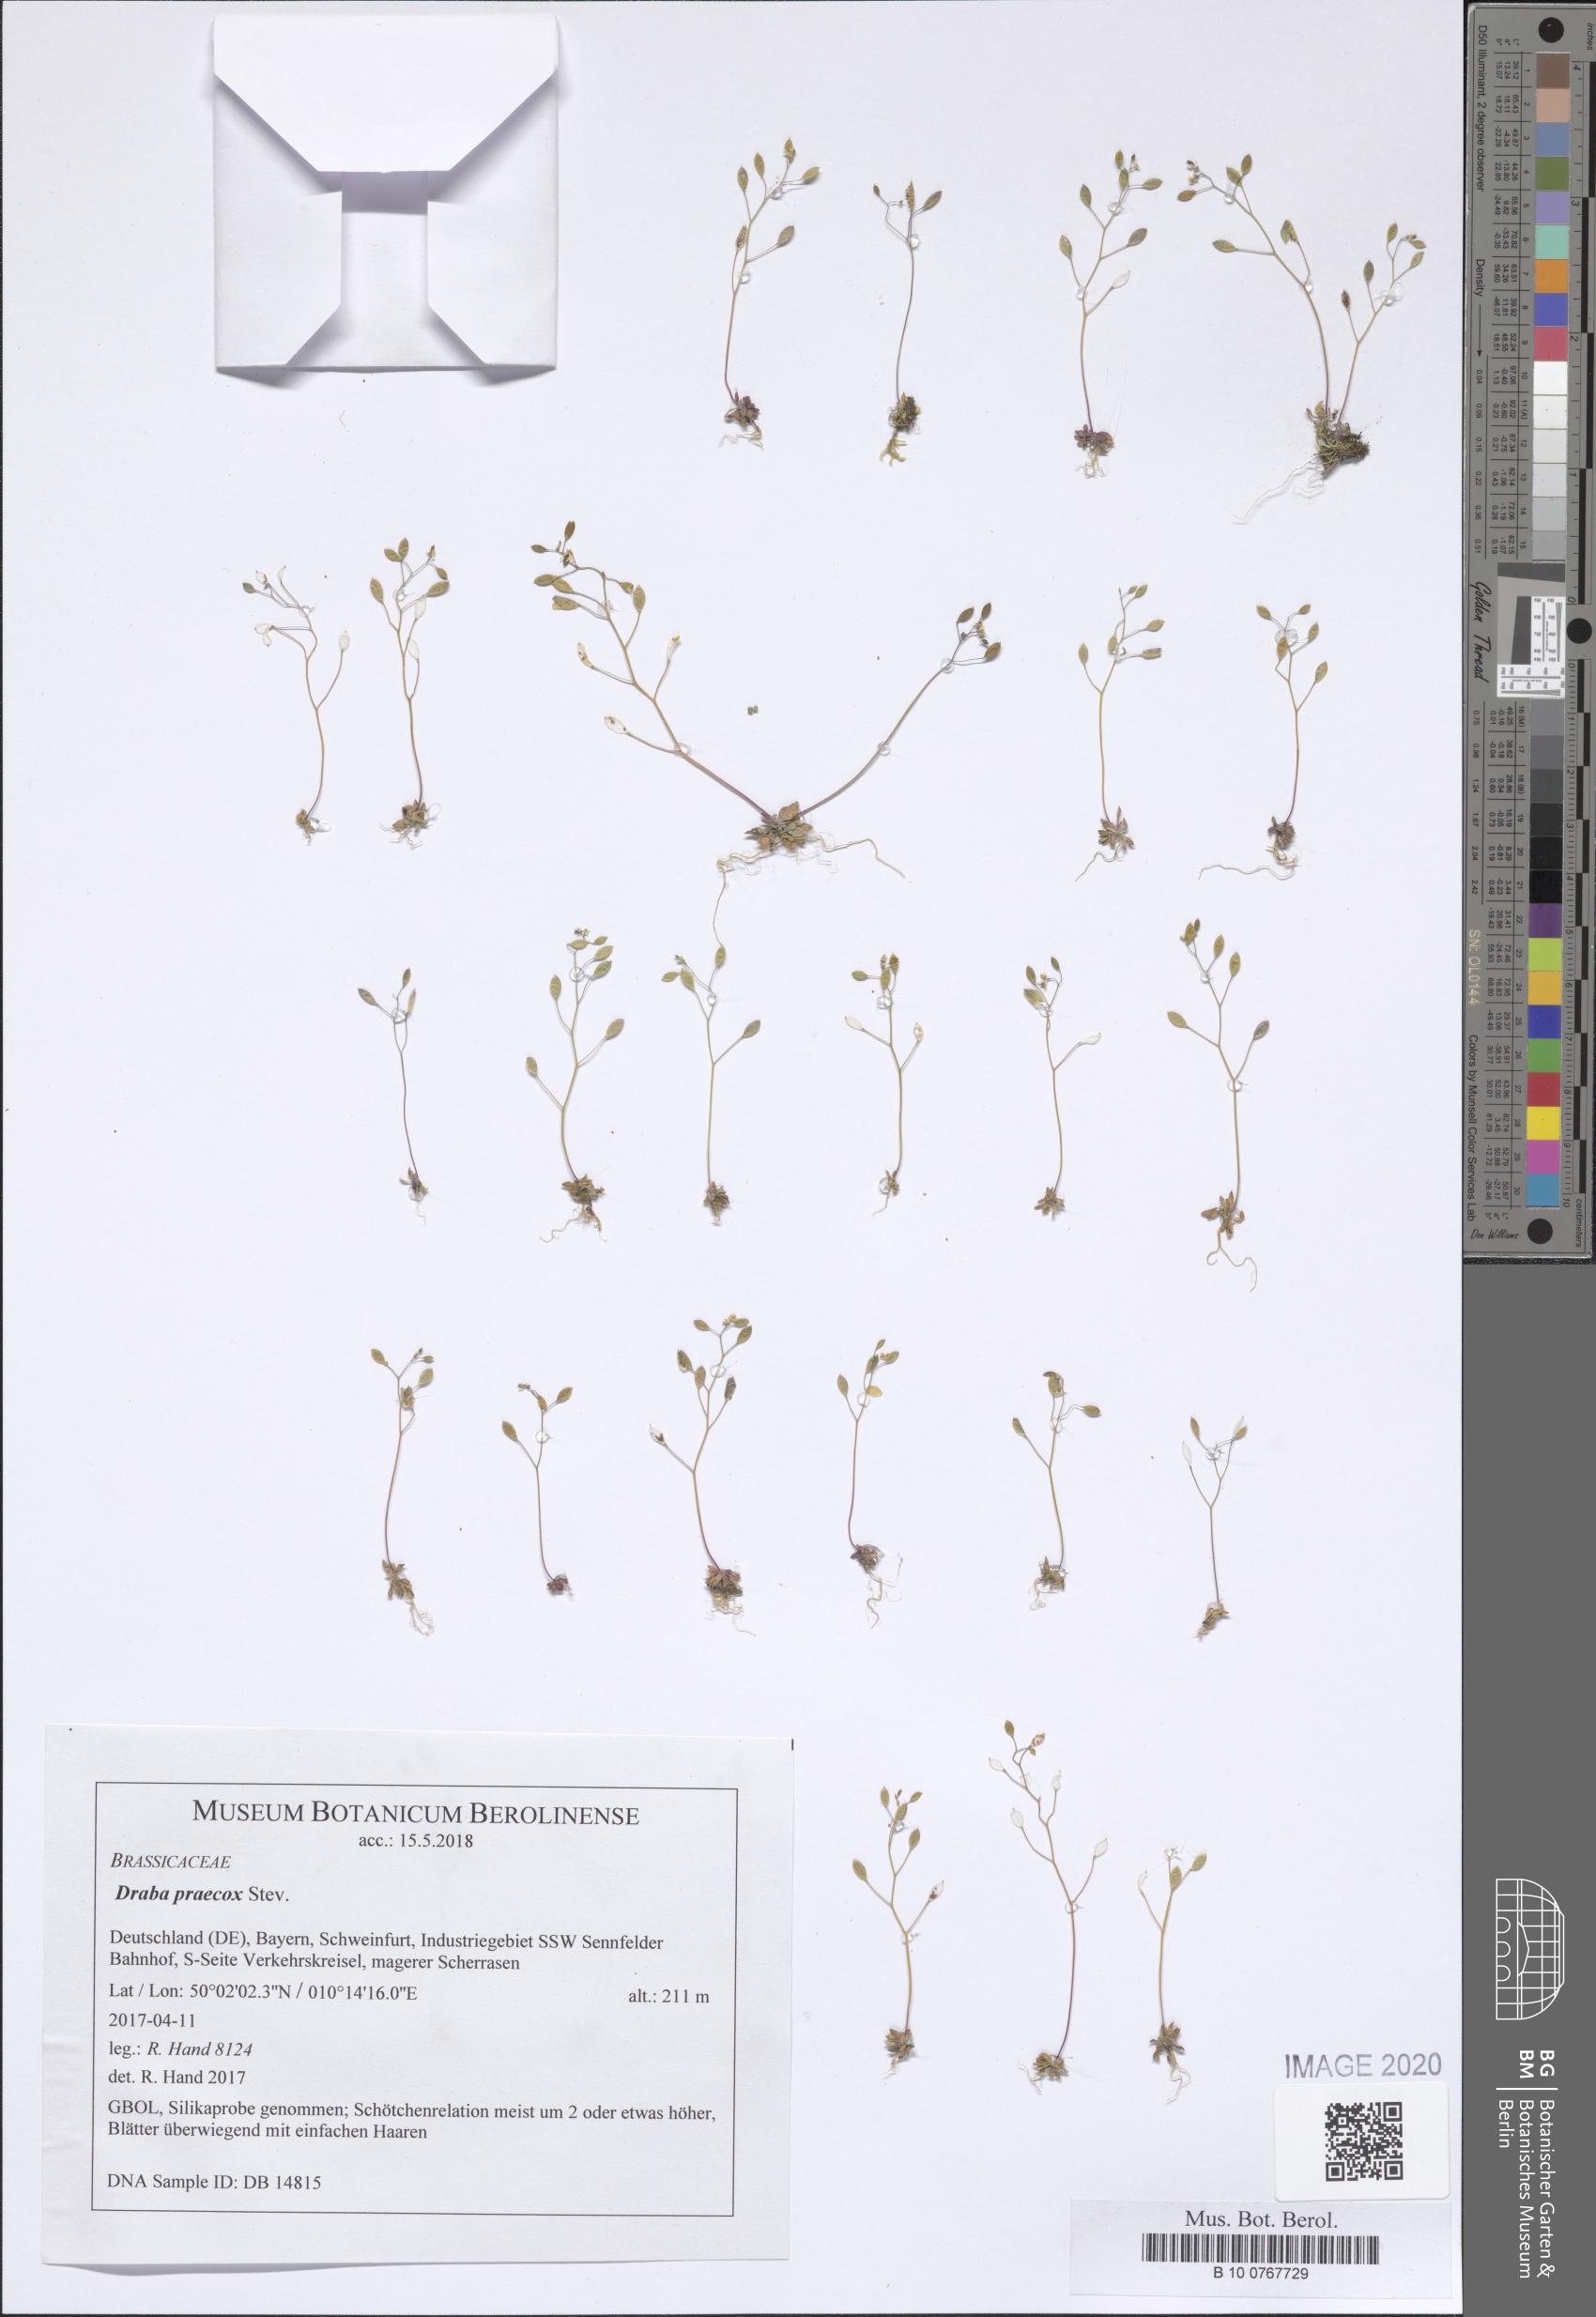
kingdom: Plantae
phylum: Tracheophyta
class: Magnoliopsida
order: Brassicales
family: Brassicaceae
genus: Draba
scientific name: Draba verna
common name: Spring draba
